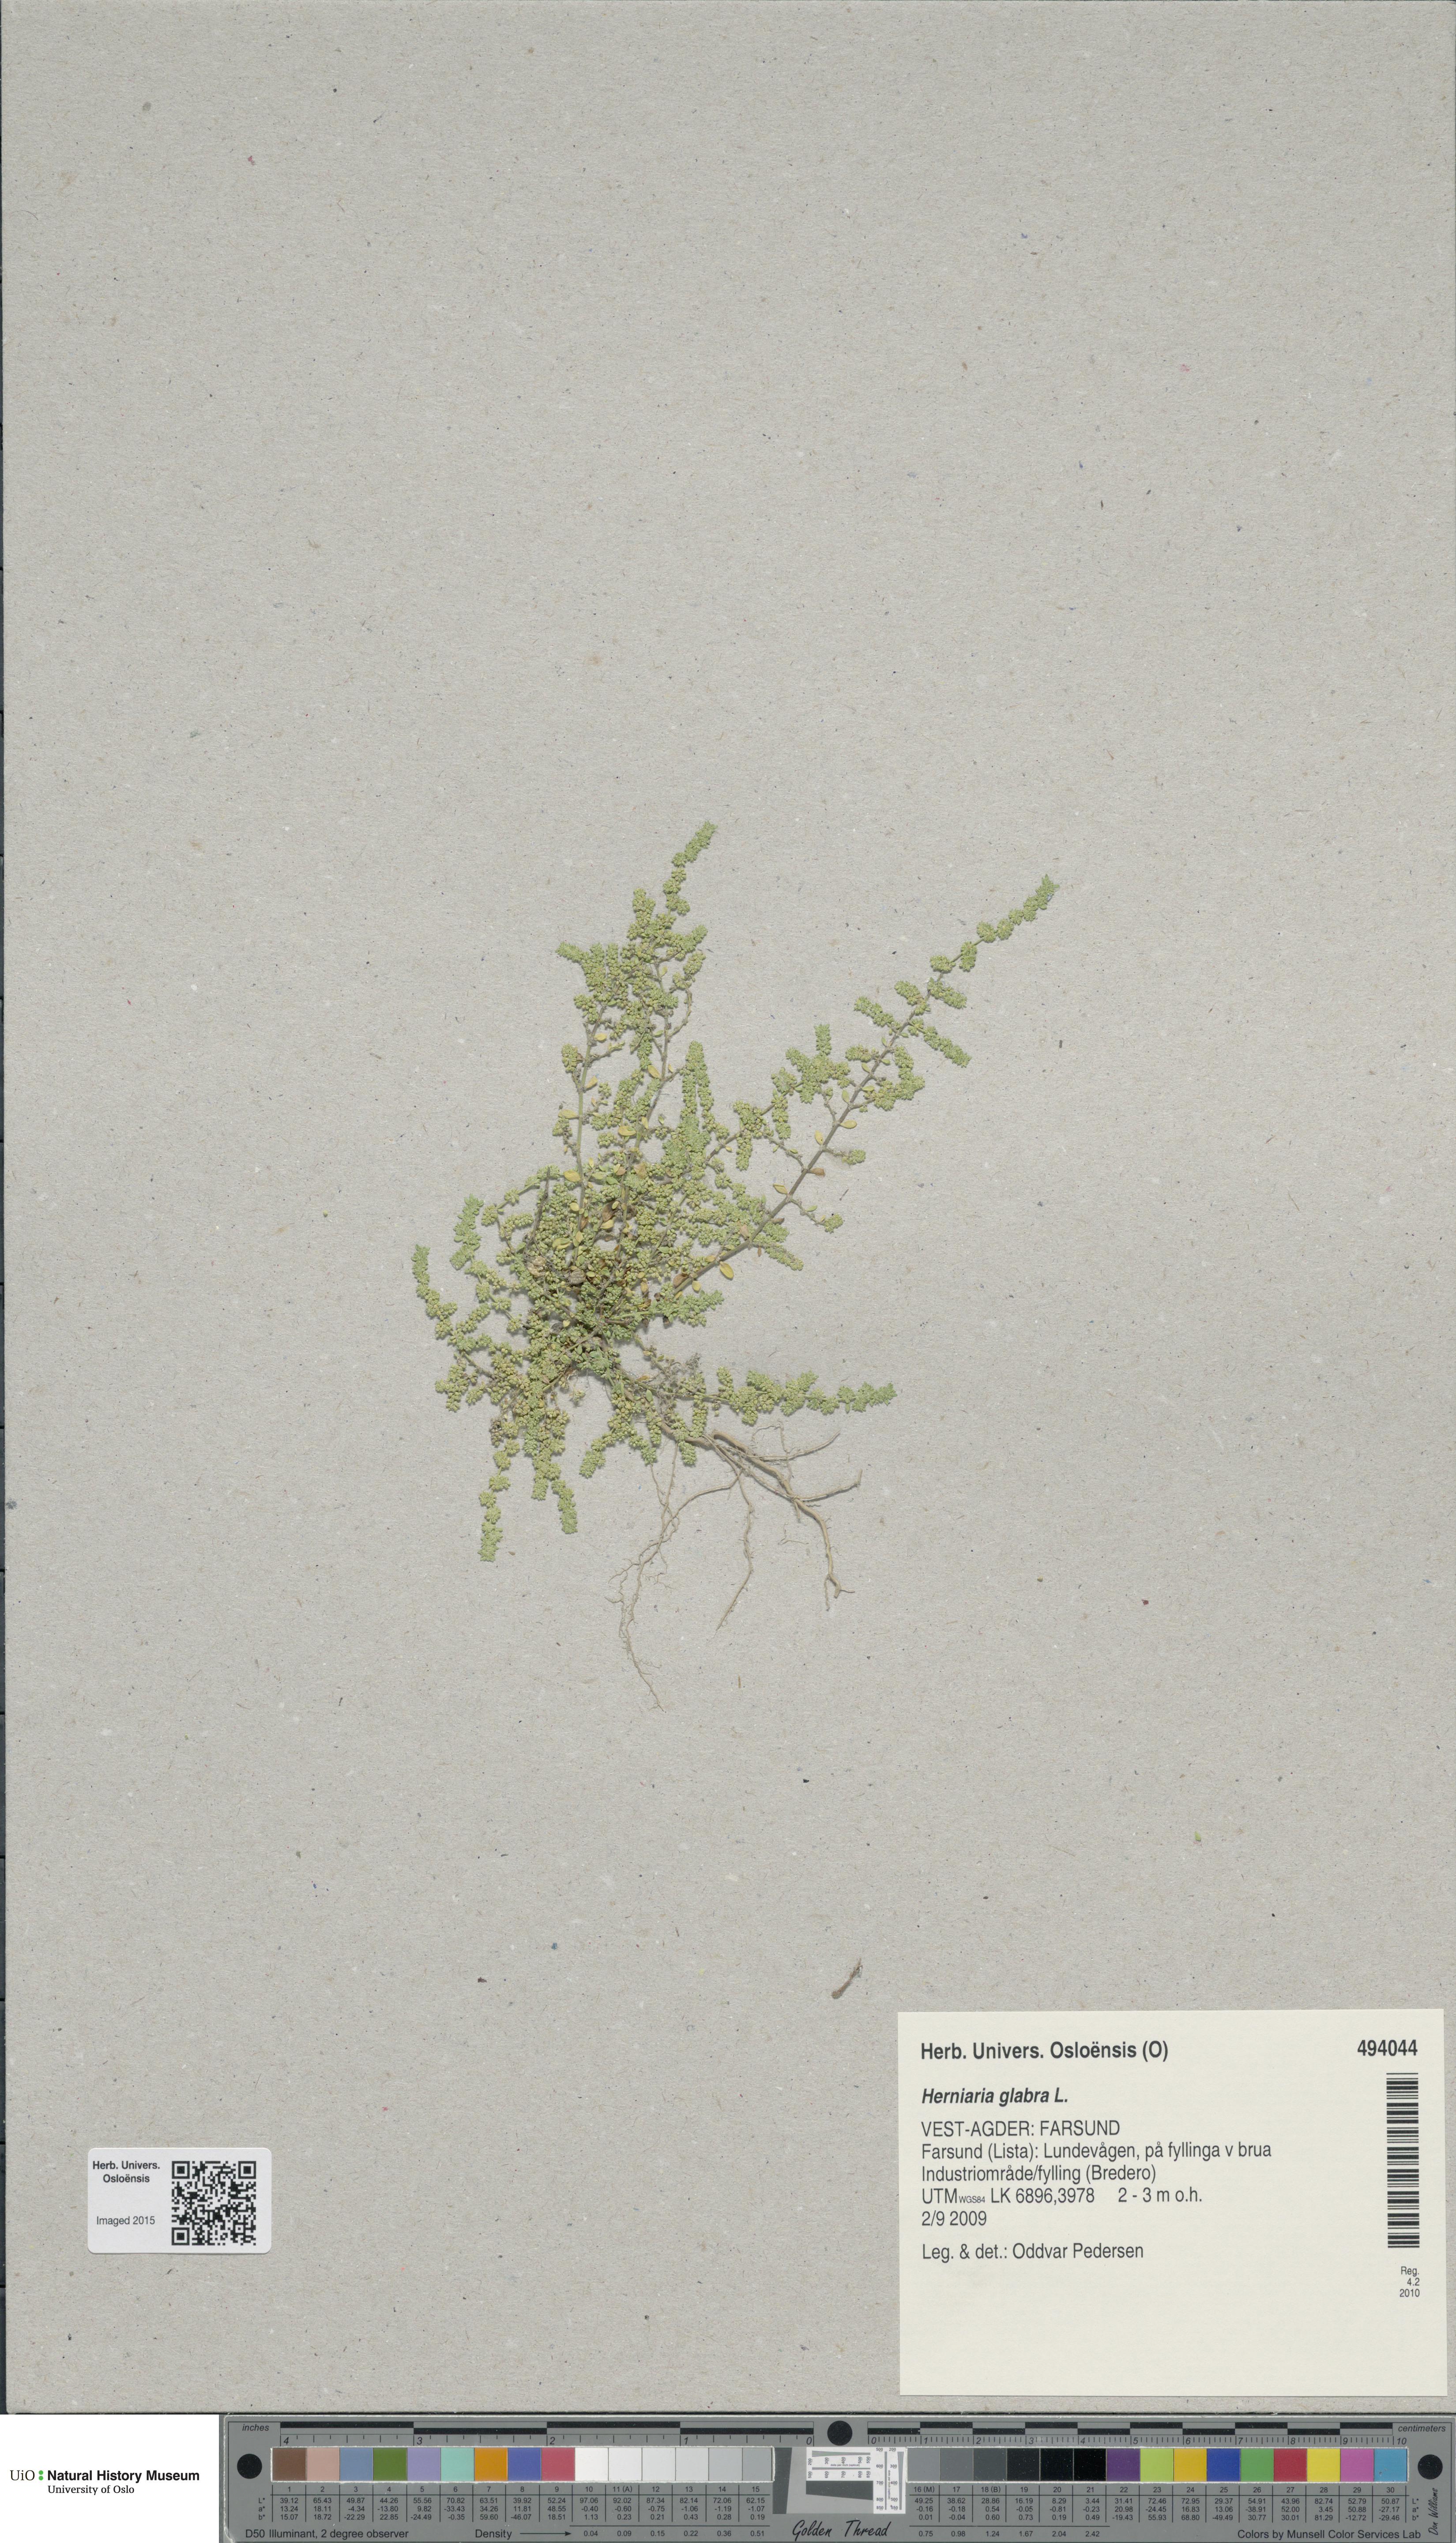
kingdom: Plantae
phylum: Tracheophyta
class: Magnoliopsida
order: Caryophyllales
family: Caryophyllaceae
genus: Herniaria
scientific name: Herniaria glabra
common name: Smooth rupturewort
